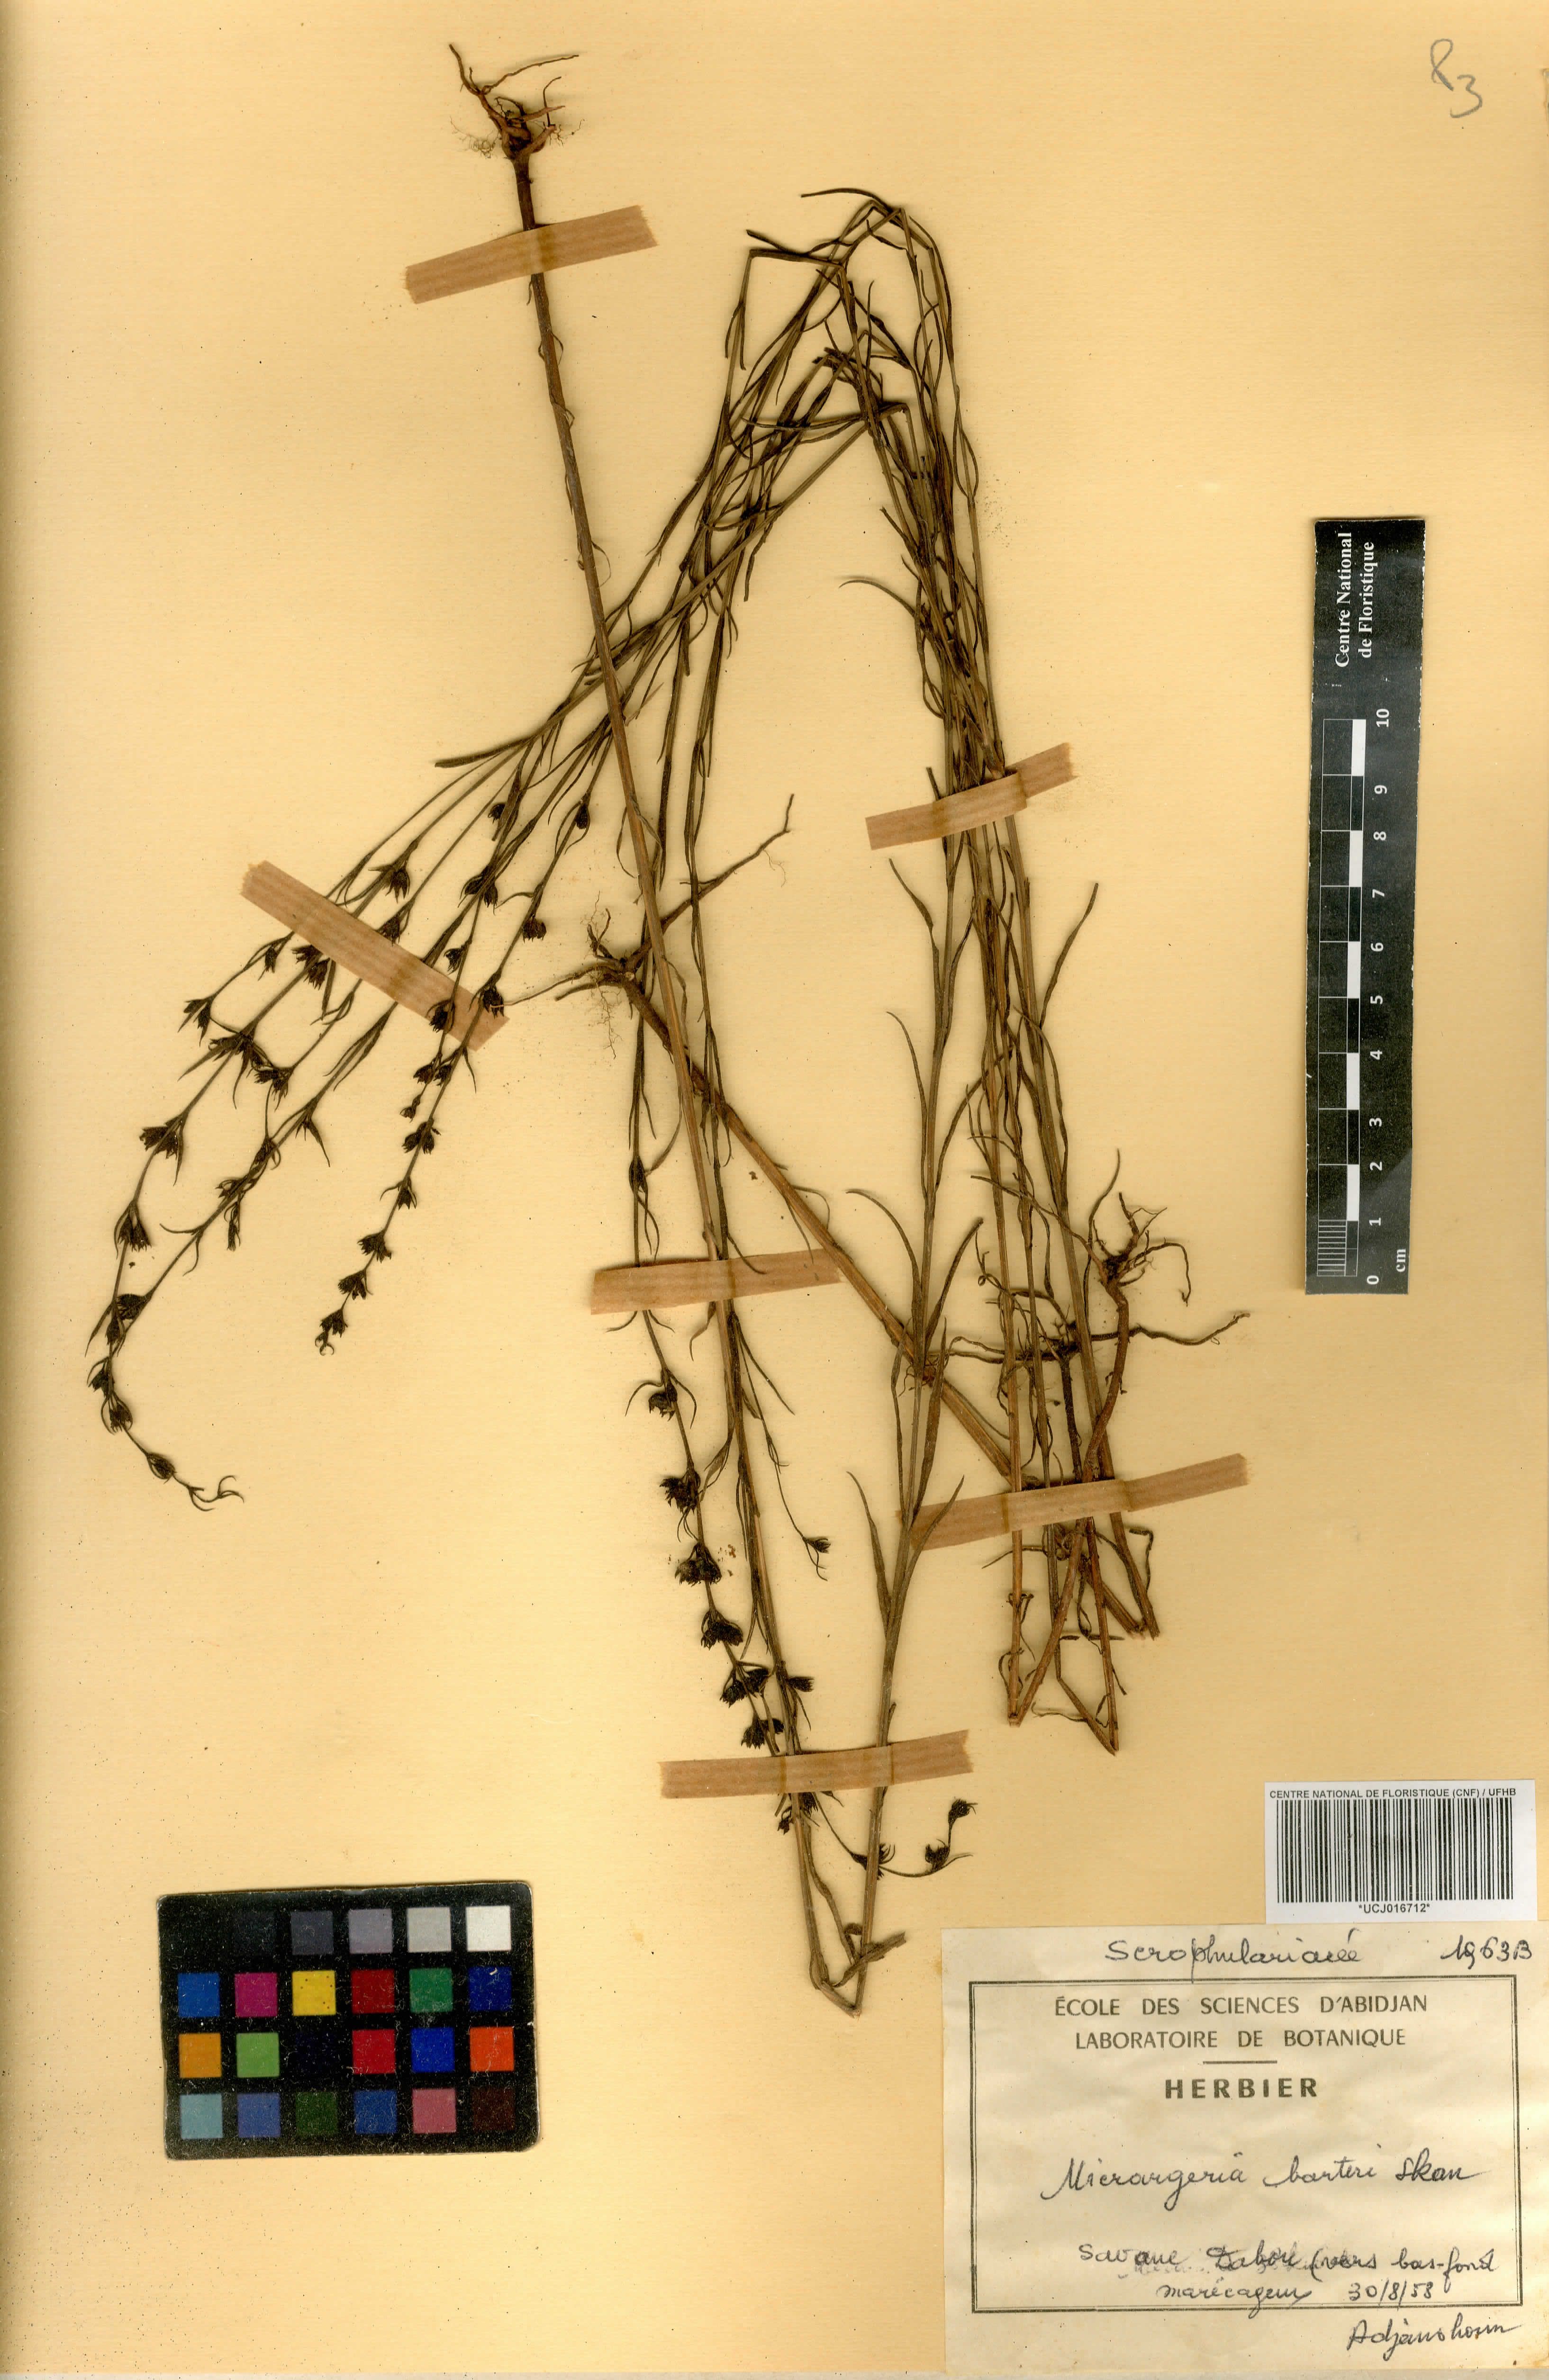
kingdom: Plantae
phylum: Tracheophyta
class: Magnoliopsida
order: Lamiales
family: Orobanchaceae
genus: Micrargeria
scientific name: Micrargeria filiformis
